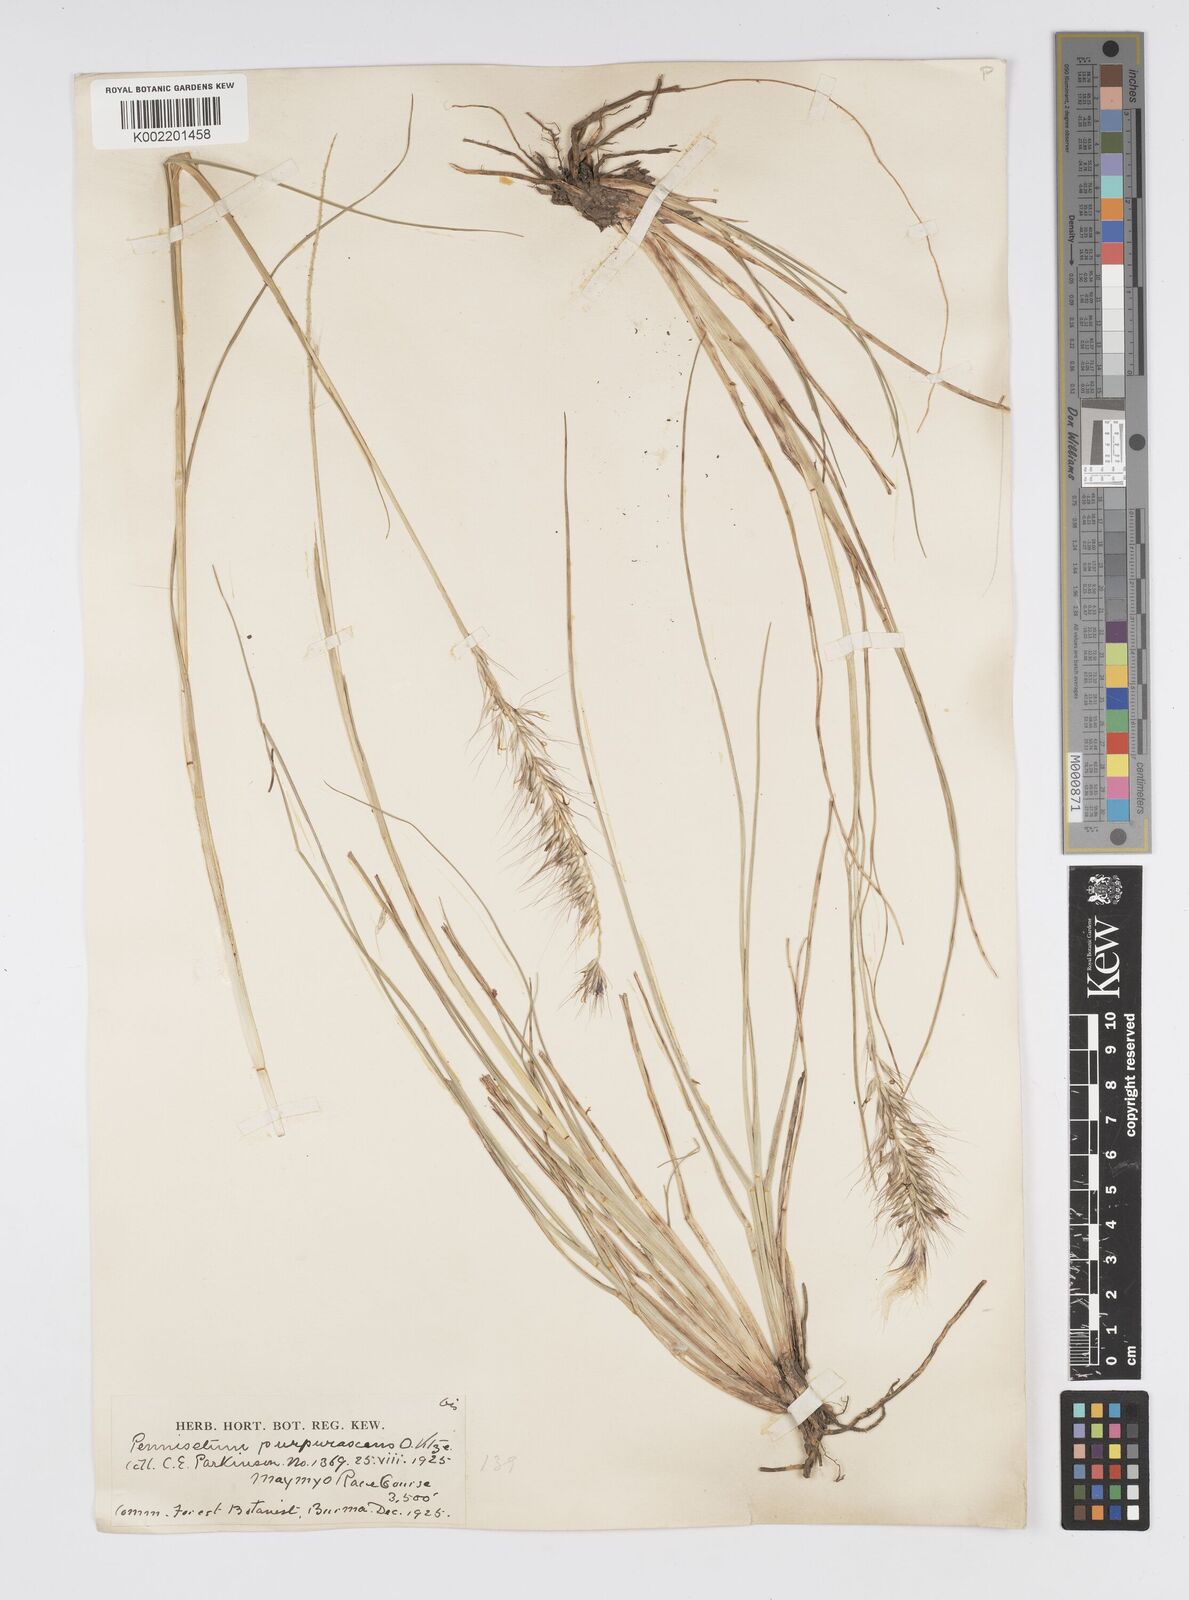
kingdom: Plantae
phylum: Tracheophyta
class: Liliopsida
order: Poales
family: Poaceae
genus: Cenchrus
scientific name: Cenchrus alopecuroides
